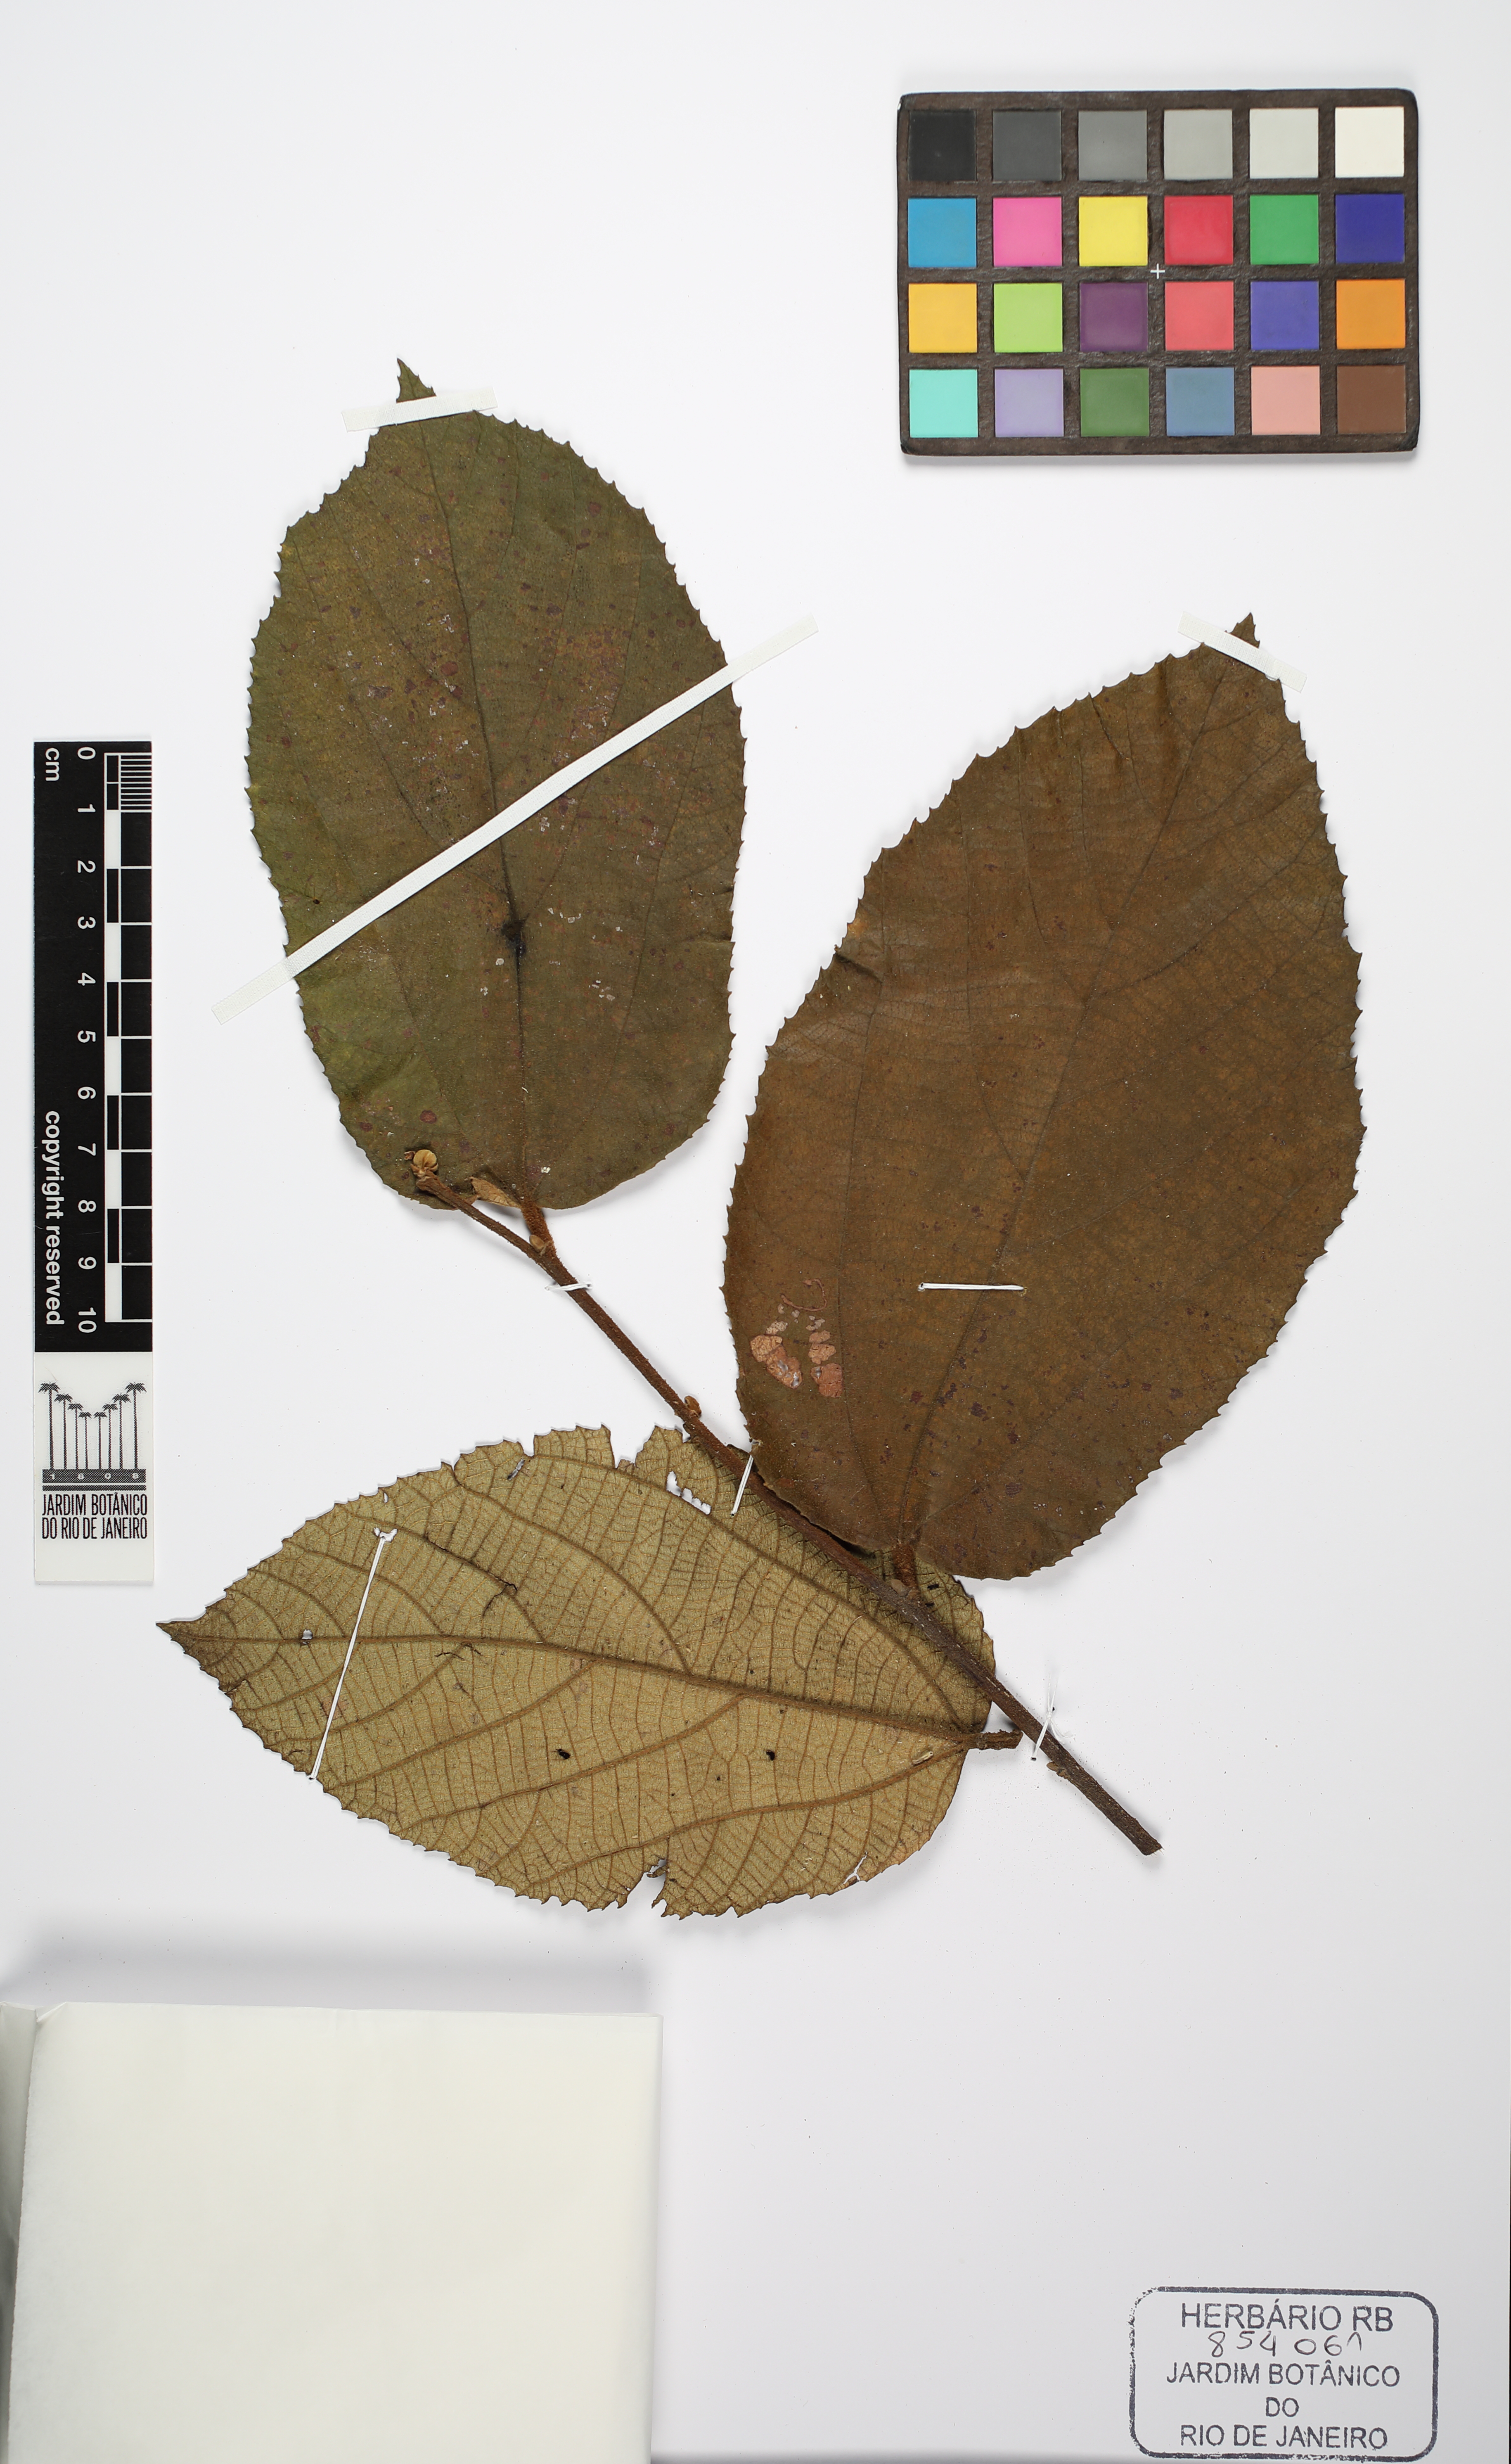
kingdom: Plantae
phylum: Tracheophyta
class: Magnoliopsida
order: Malvales
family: Malvaceae
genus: Luehea
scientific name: Luehea grandiflora
